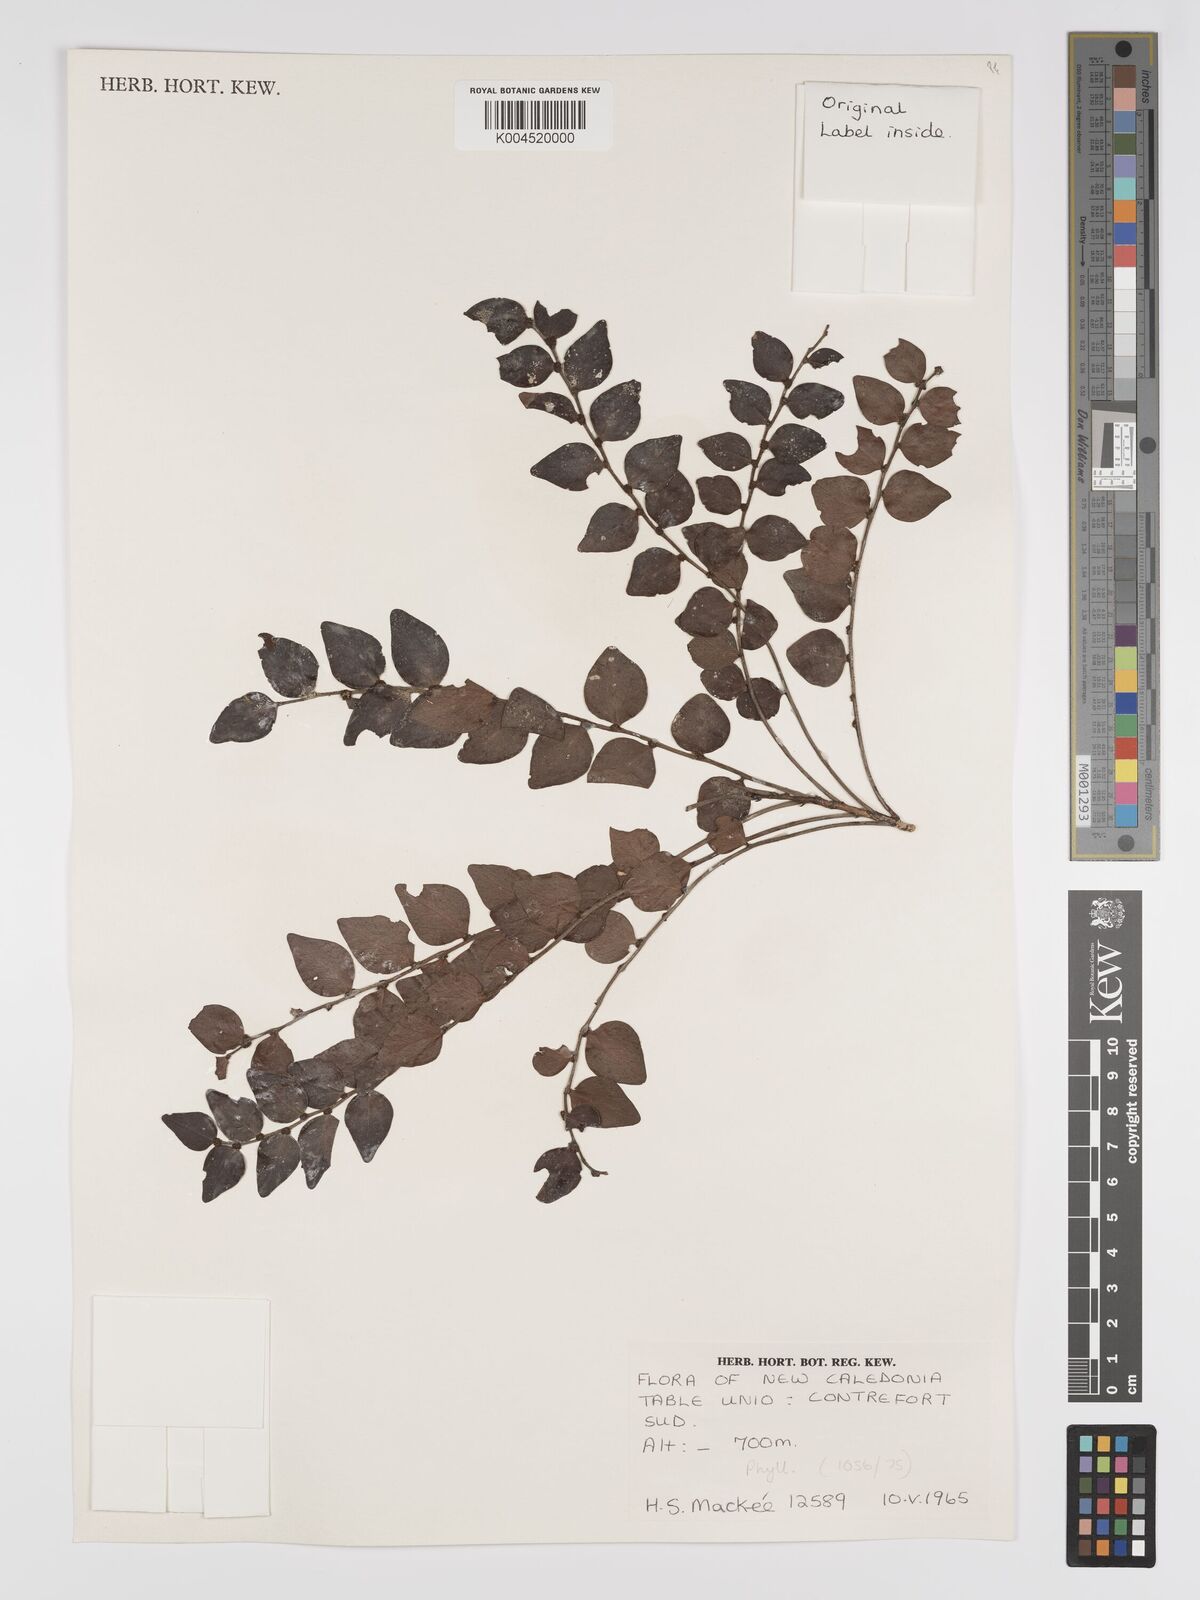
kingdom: Plantae
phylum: Tracheophyta
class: Magnoliopsida
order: Malpighiales
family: Phyllanthaceae
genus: Phyllanthus
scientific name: Phyllanthus
